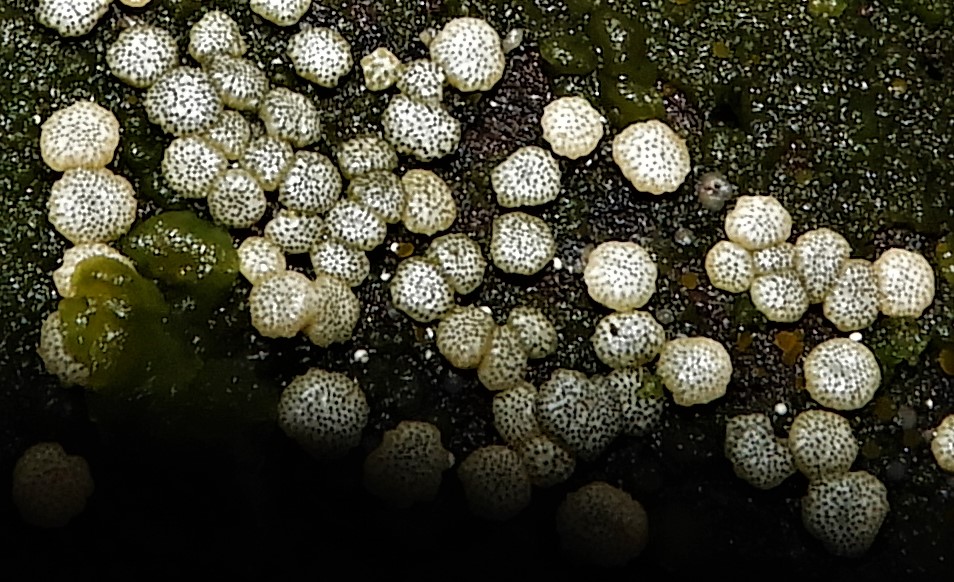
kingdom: Fungi
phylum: Ascomycota
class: Sordariomycetes
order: Hypocreales
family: Hypocreaceae
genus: Trichoderma
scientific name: Trichoderma strictipile
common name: grønprikket kødkerne
